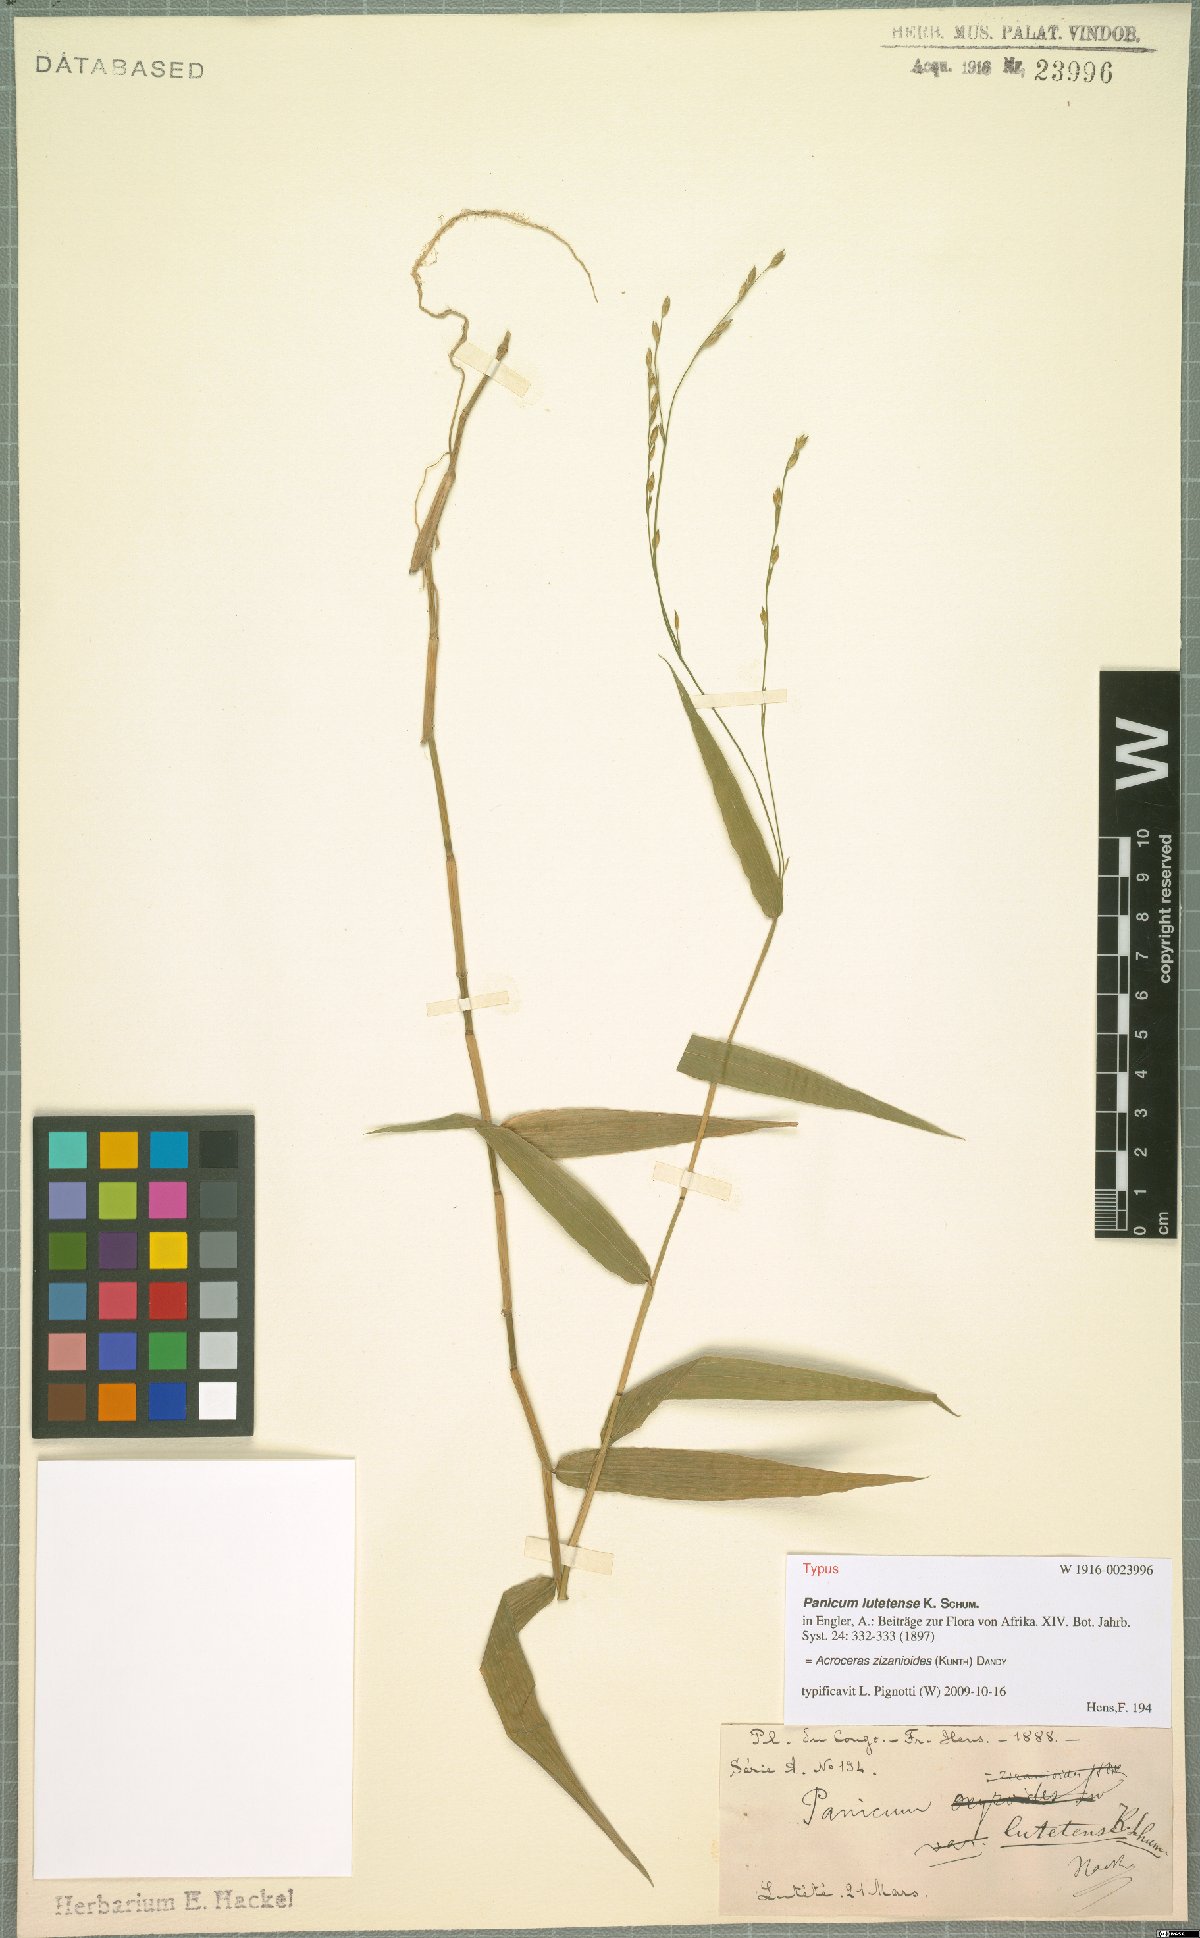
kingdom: Plantae
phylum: Tracheophyta
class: Liliopsida
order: Poales
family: Poaceae
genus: Acroceras
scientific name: Acroceras zizanioides
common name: Oat grass
